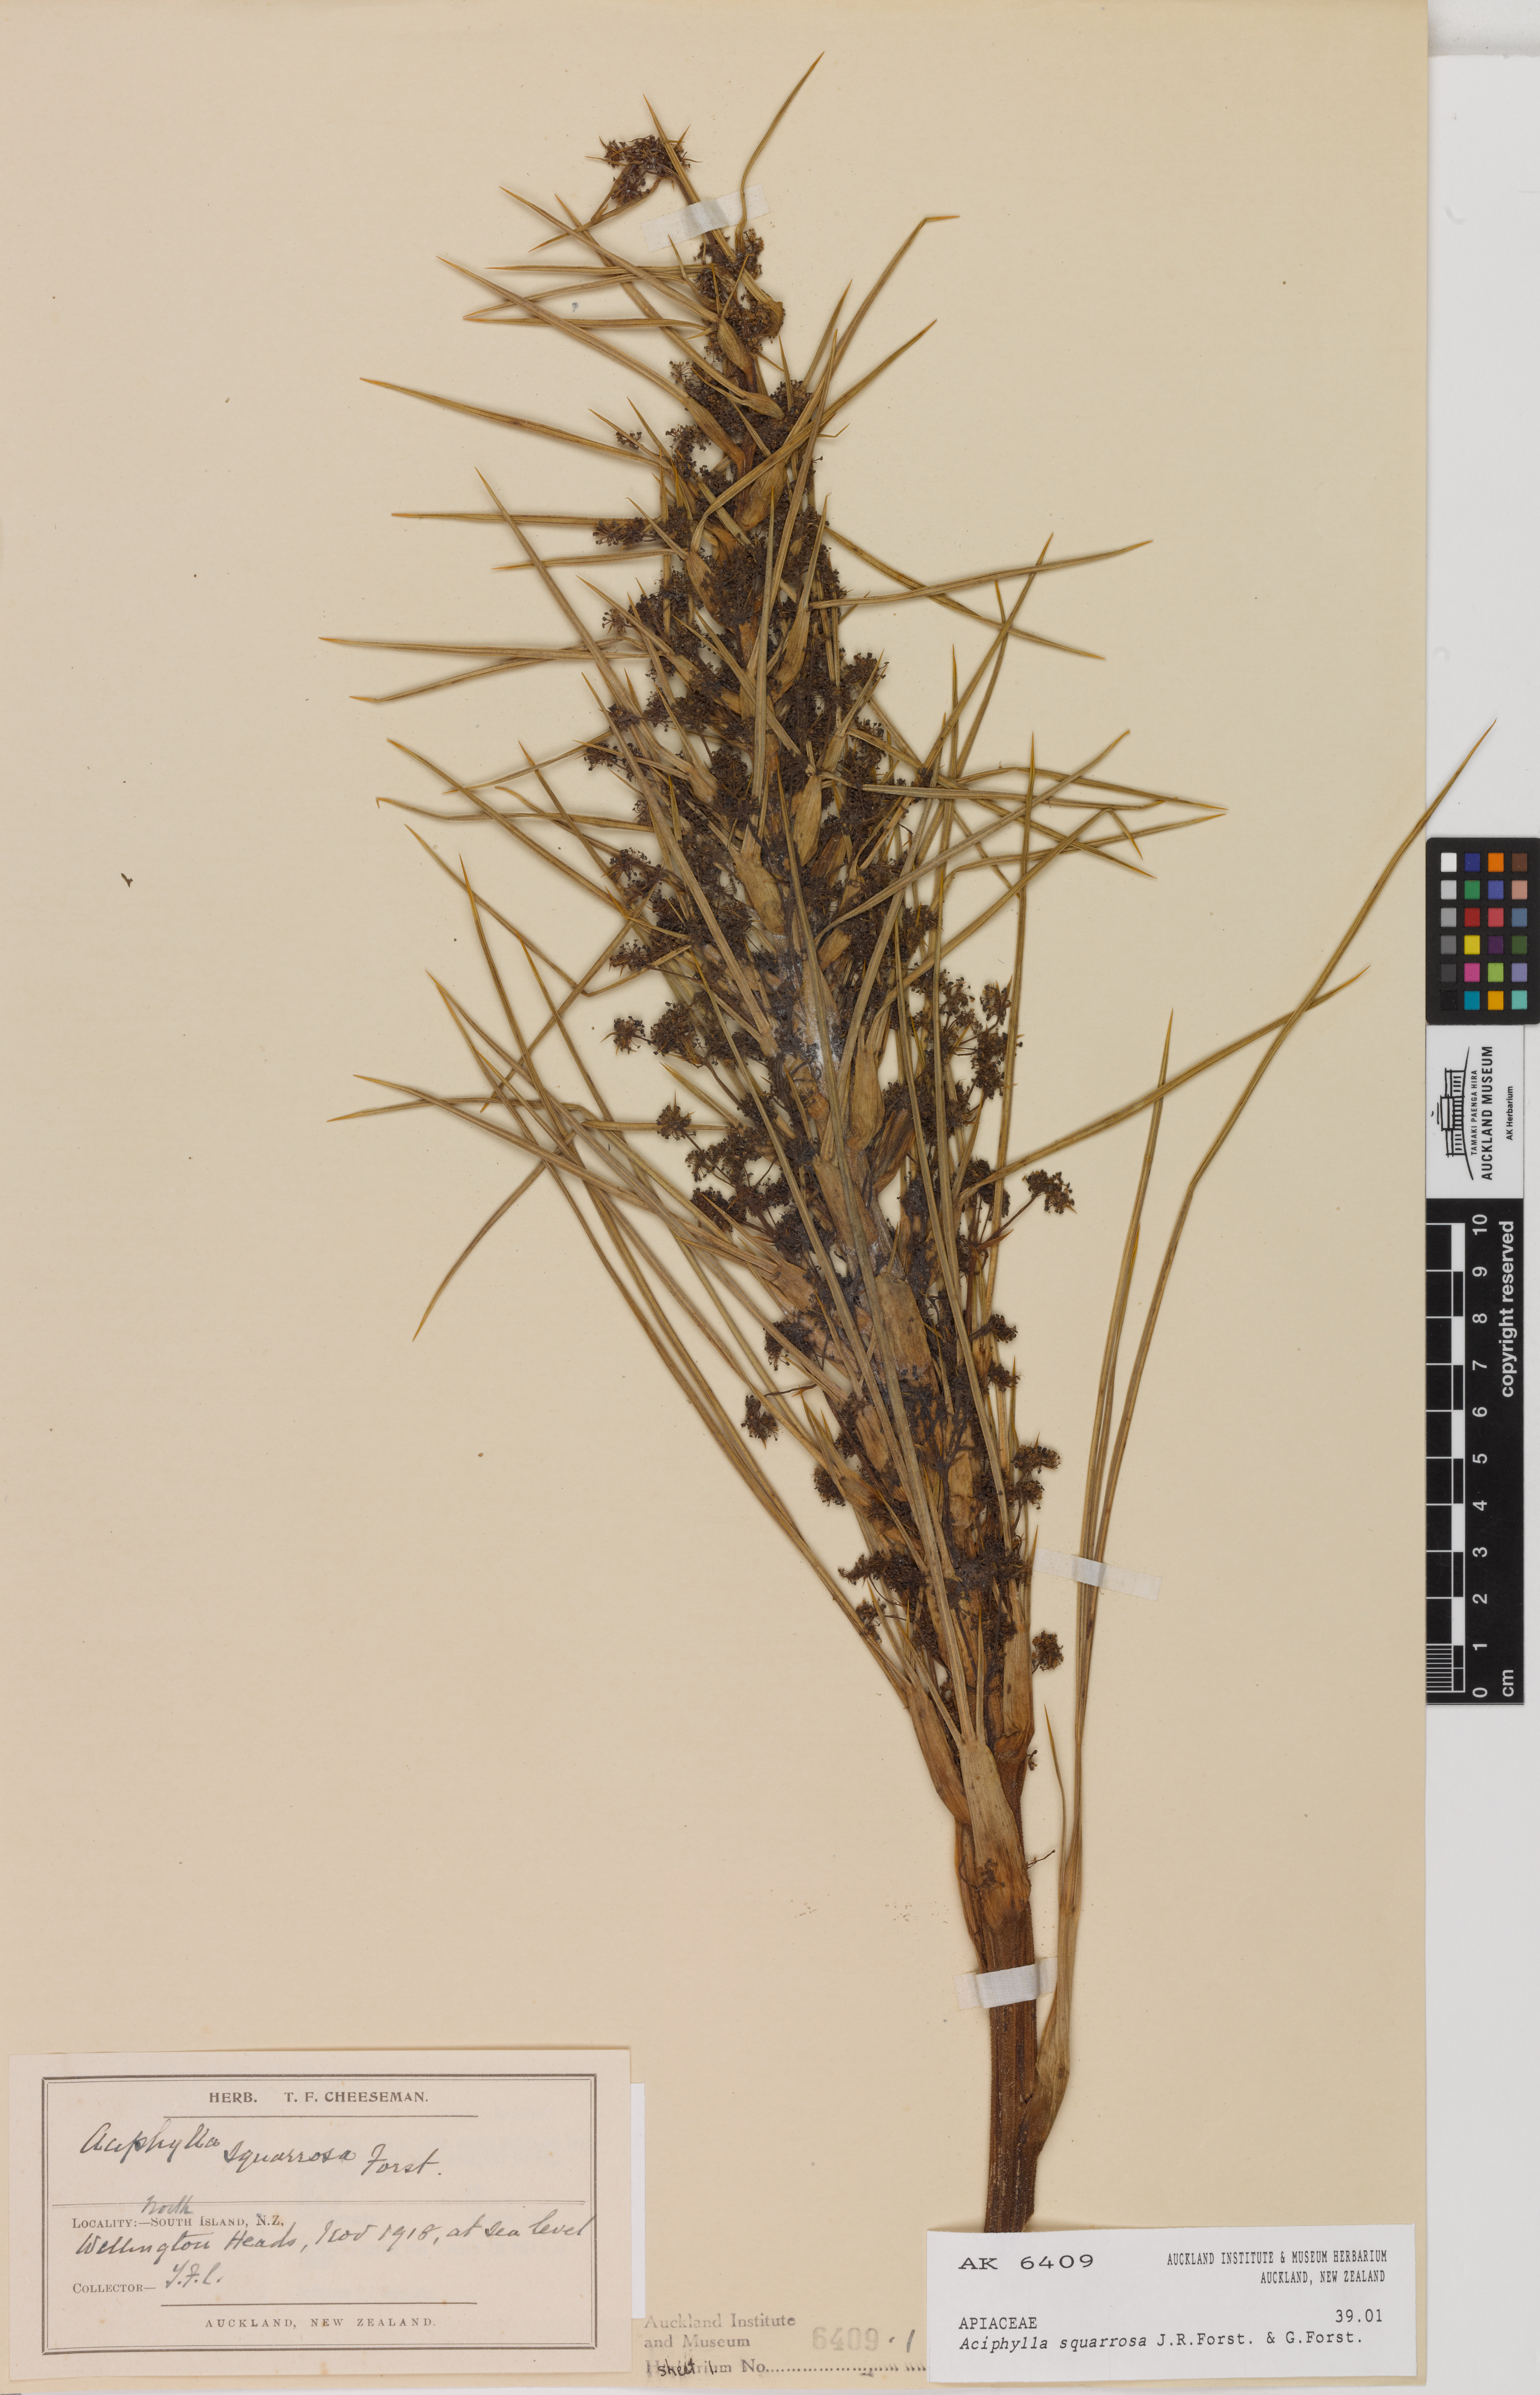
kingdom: Plantae
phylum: Tracheophyta
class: Magnoliopsida
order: Apiales
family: Apiaceae
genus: Aciphylla
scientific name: Aciphylla squarrosa
